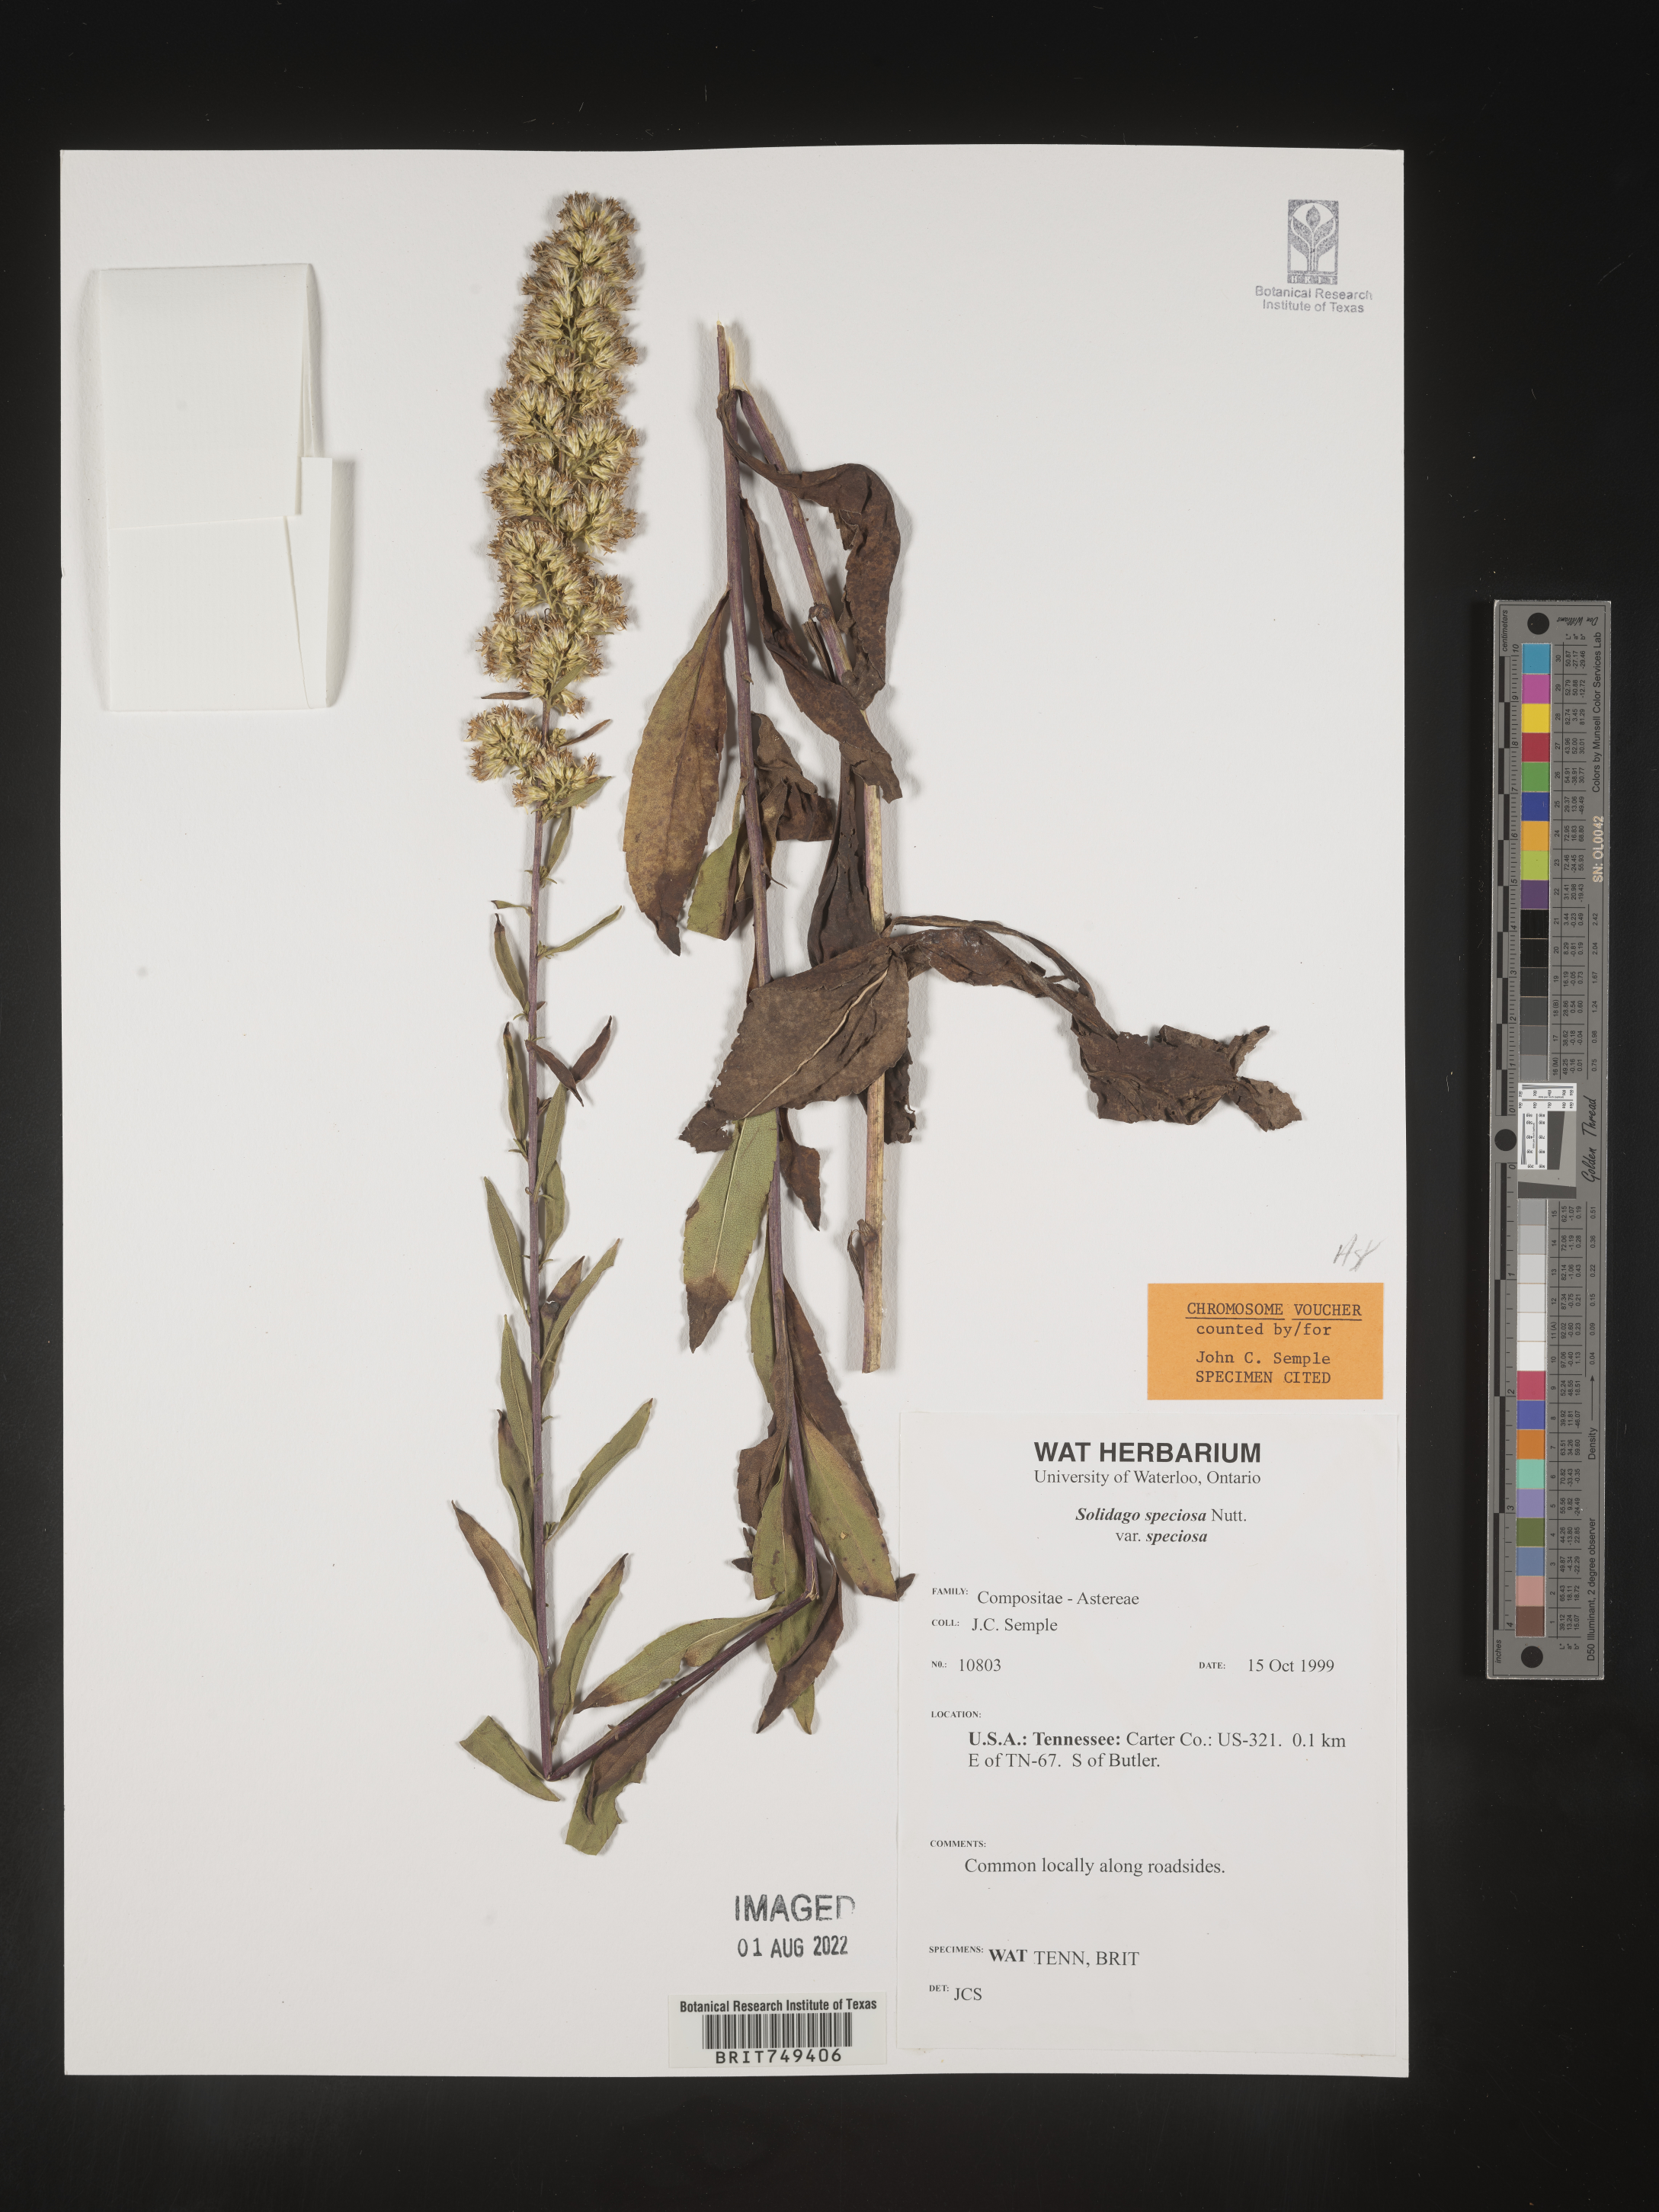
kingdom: Plantae
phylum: Tracheophyta
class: Magnoliopsida
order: Asterales
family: Asteraceae
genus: Solidago
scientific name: Solidago speciosa
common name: Showy goldenrod
